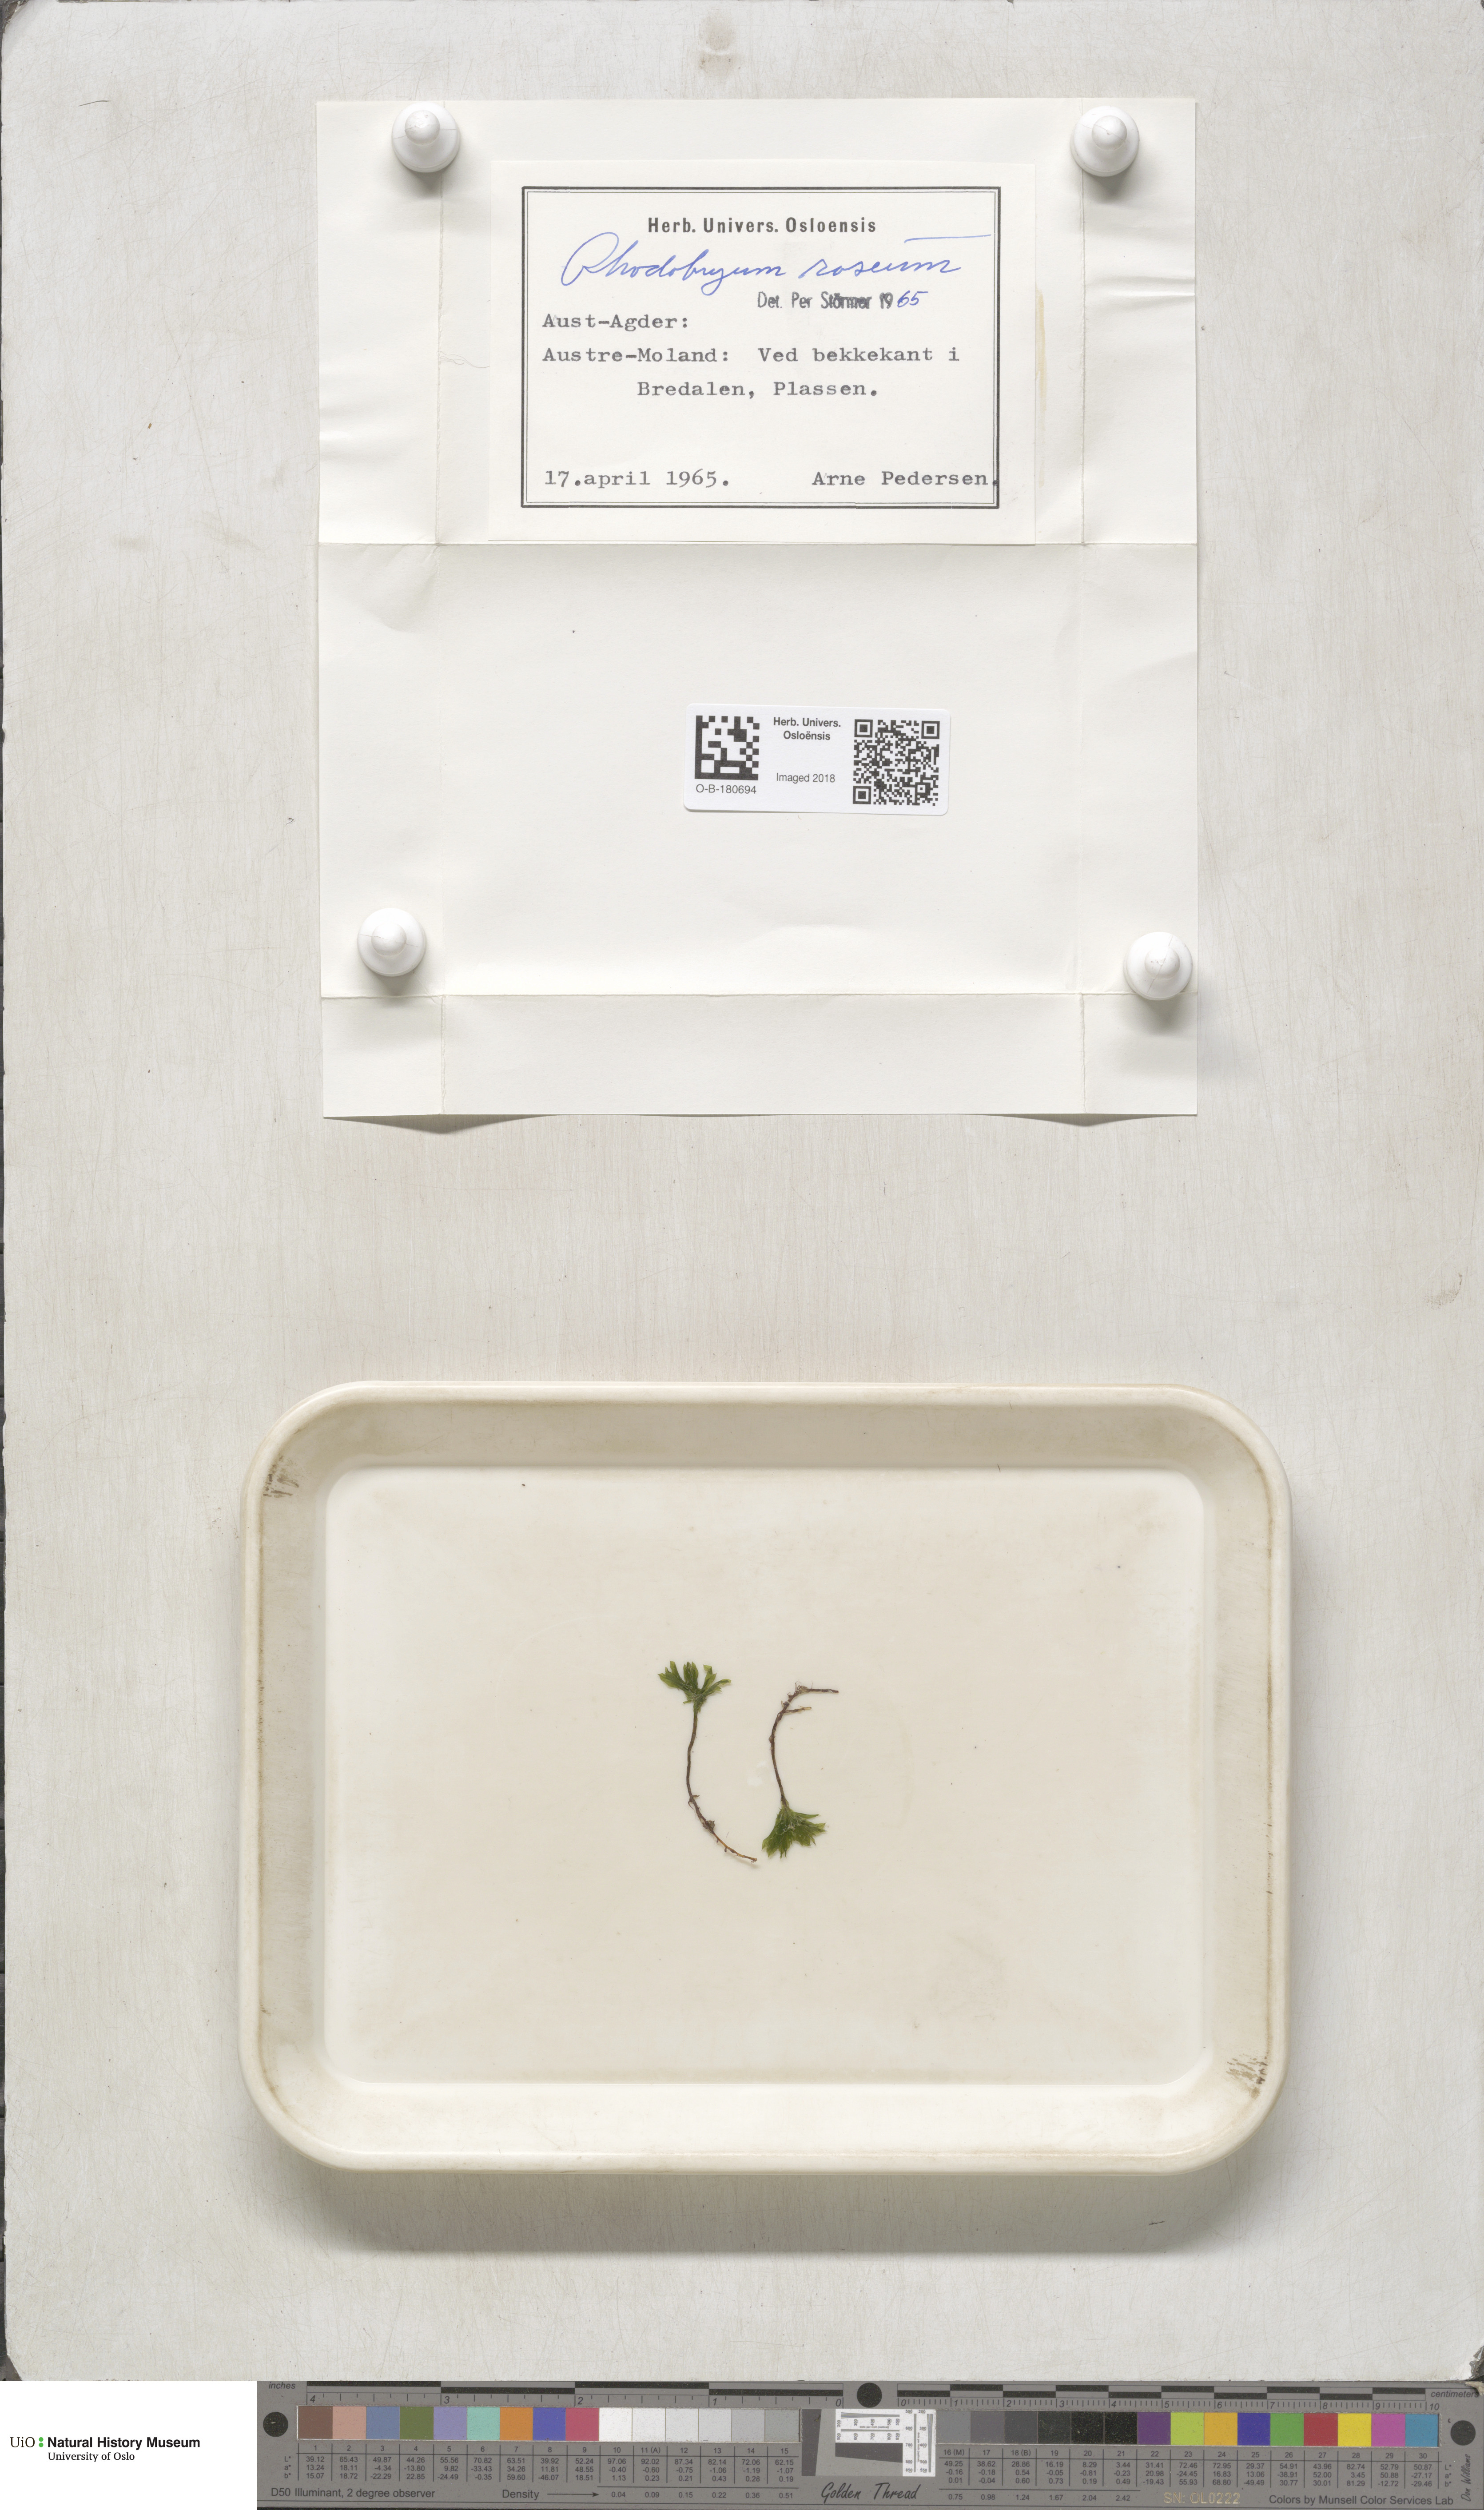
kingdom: Plantae
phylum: Bryophyta
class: Bryopsida
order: Bryales
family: Bryaceae
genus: Rhodobryum
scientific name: Rhodobryum roseum
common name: Rose-moss
